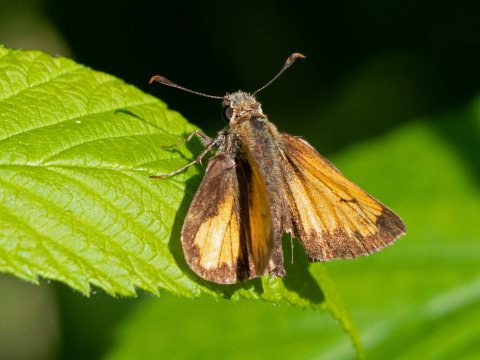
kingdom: Animalia
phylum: Arthropoda
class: Insecta
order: Lepidoptera
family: Hesperiidae
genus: Lon
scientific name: Lon hobomok
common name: Hobomok Skipper
